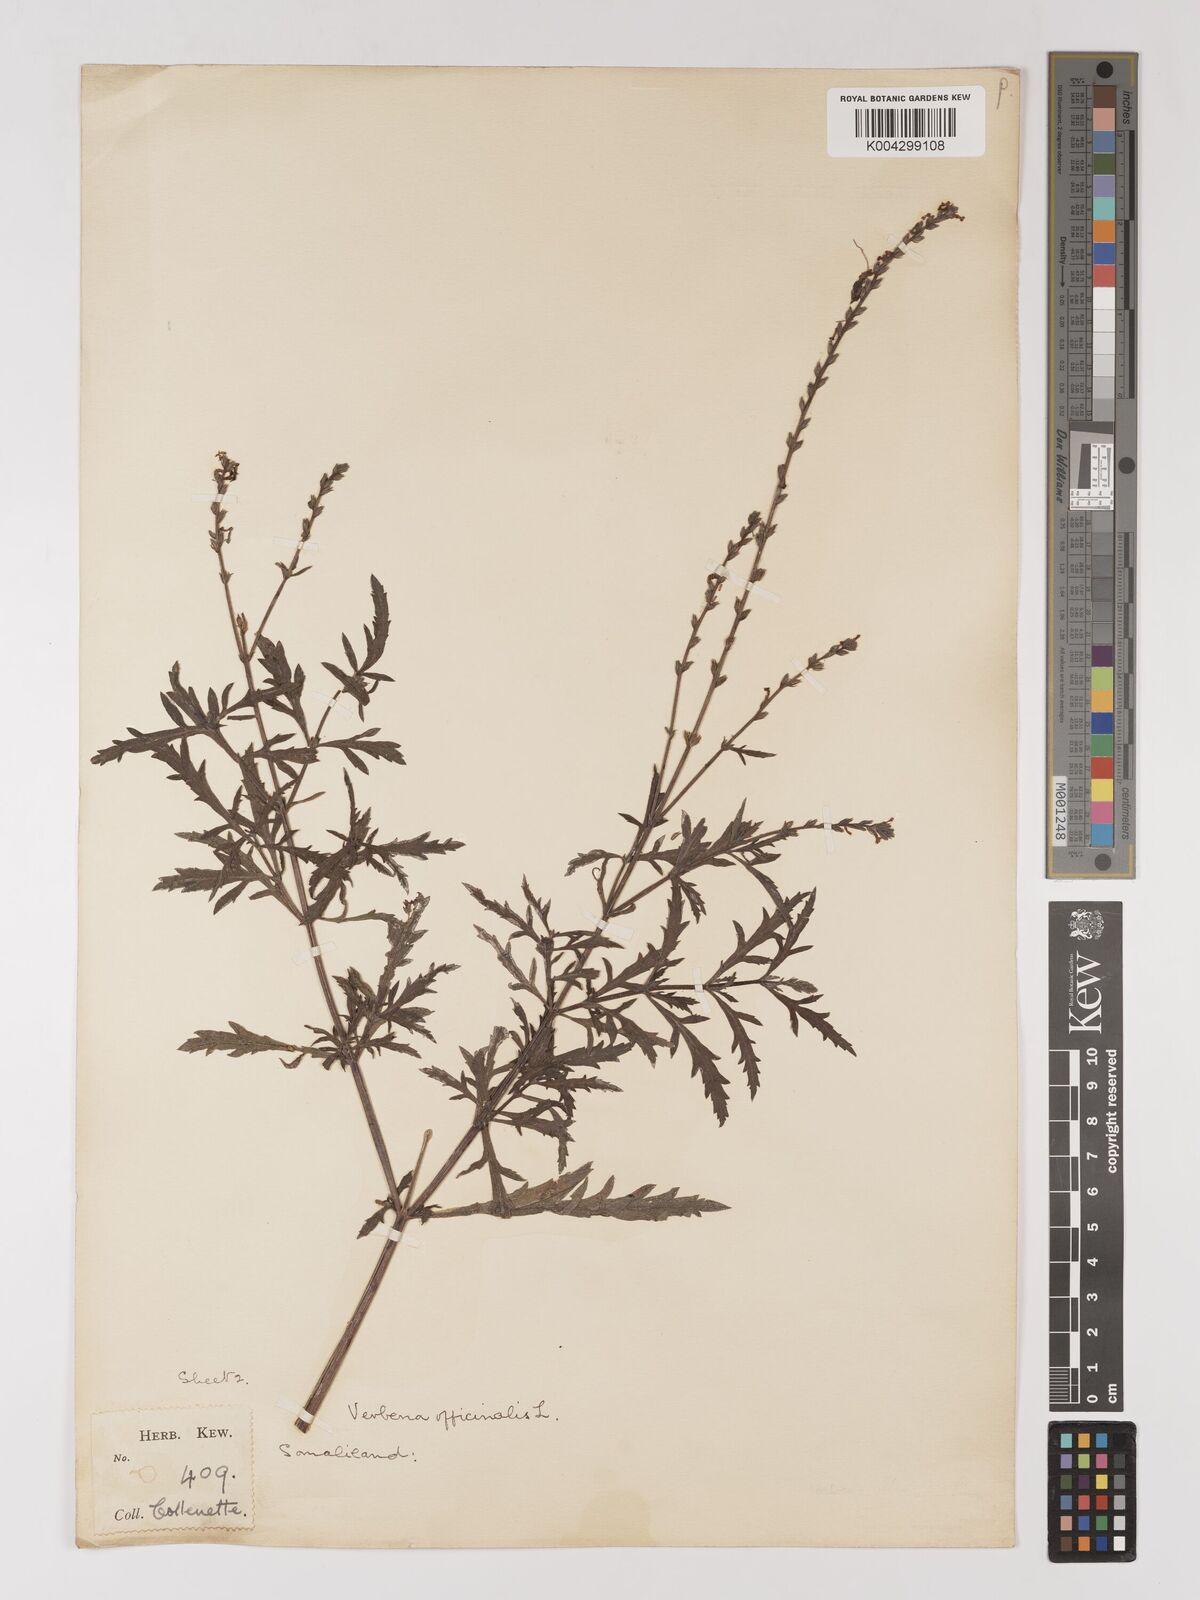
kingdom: Plantae
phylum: Tracheophyta
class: Magnoliopsida
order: Lamiales
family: Verbenaceae
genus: Verbena
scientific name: Verbena officinalis
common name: Vervain
